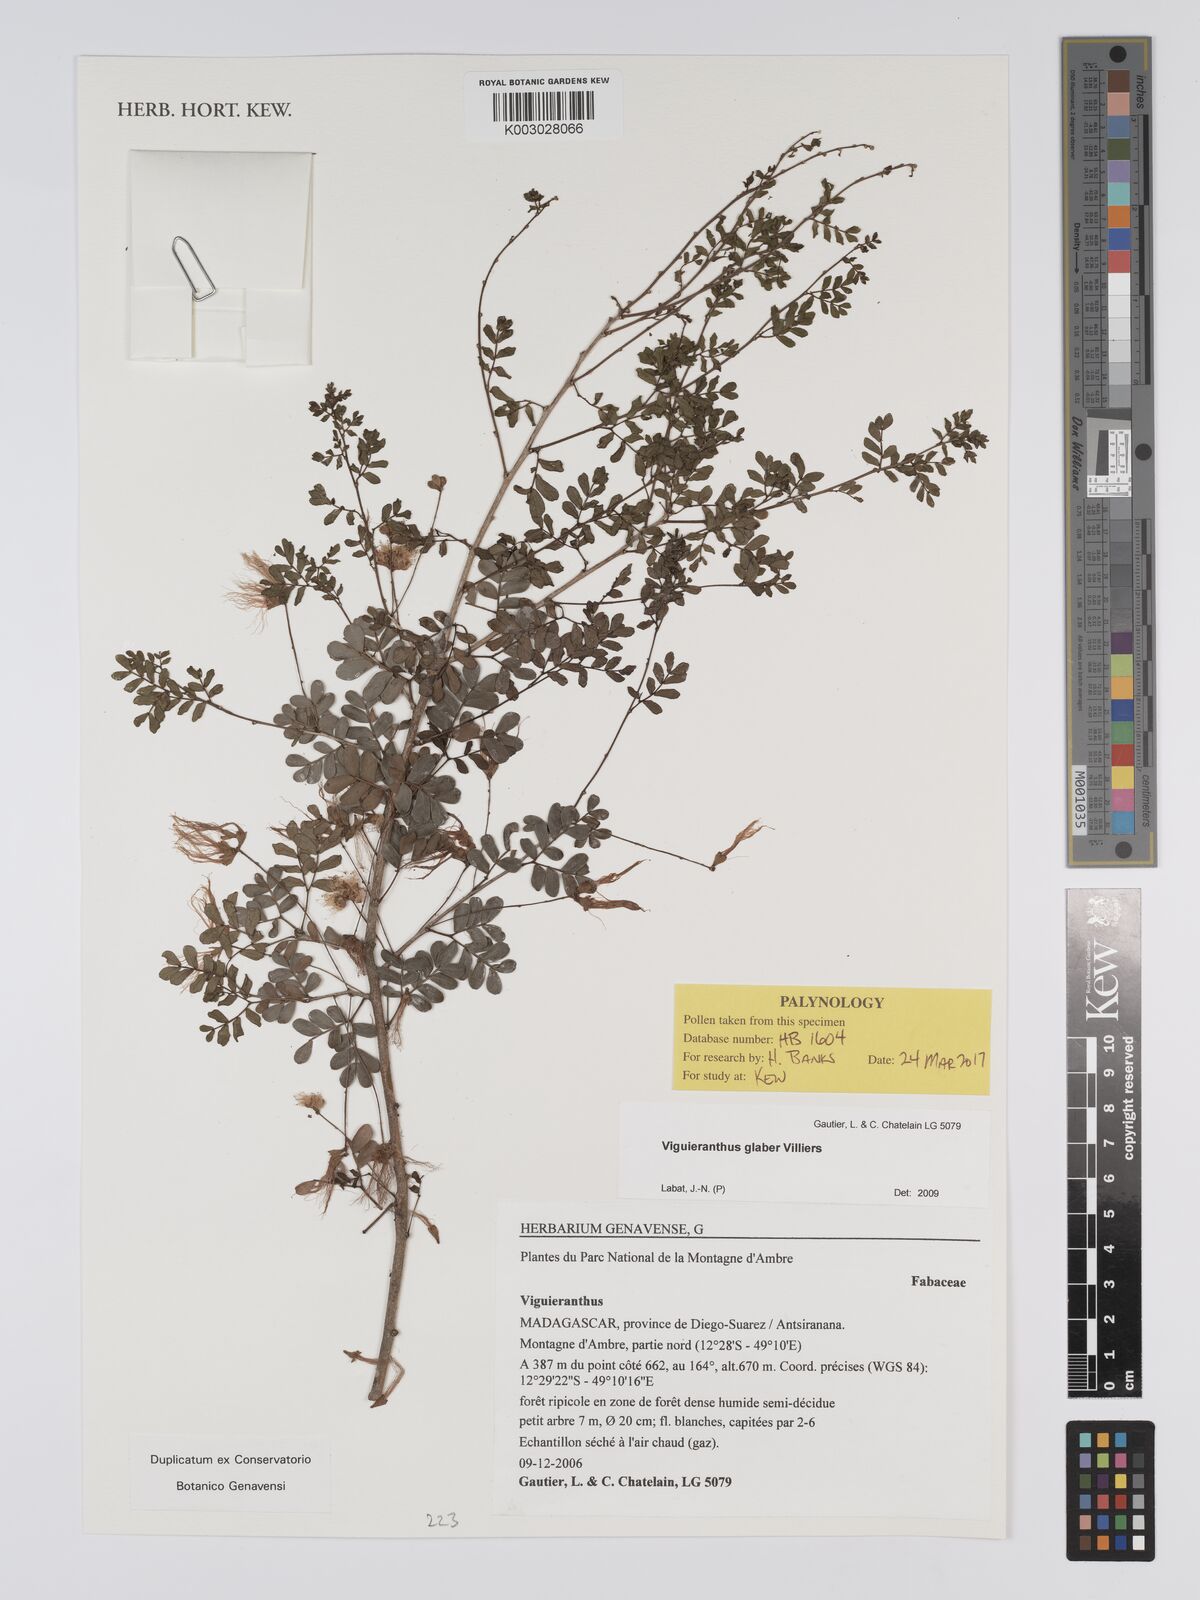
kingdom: Plantae
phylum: Tracheophyta
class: Magnoliopsida
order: Fabales
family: Fabaceae
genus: Viguieranthus
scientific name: Viguieranthus glaber
